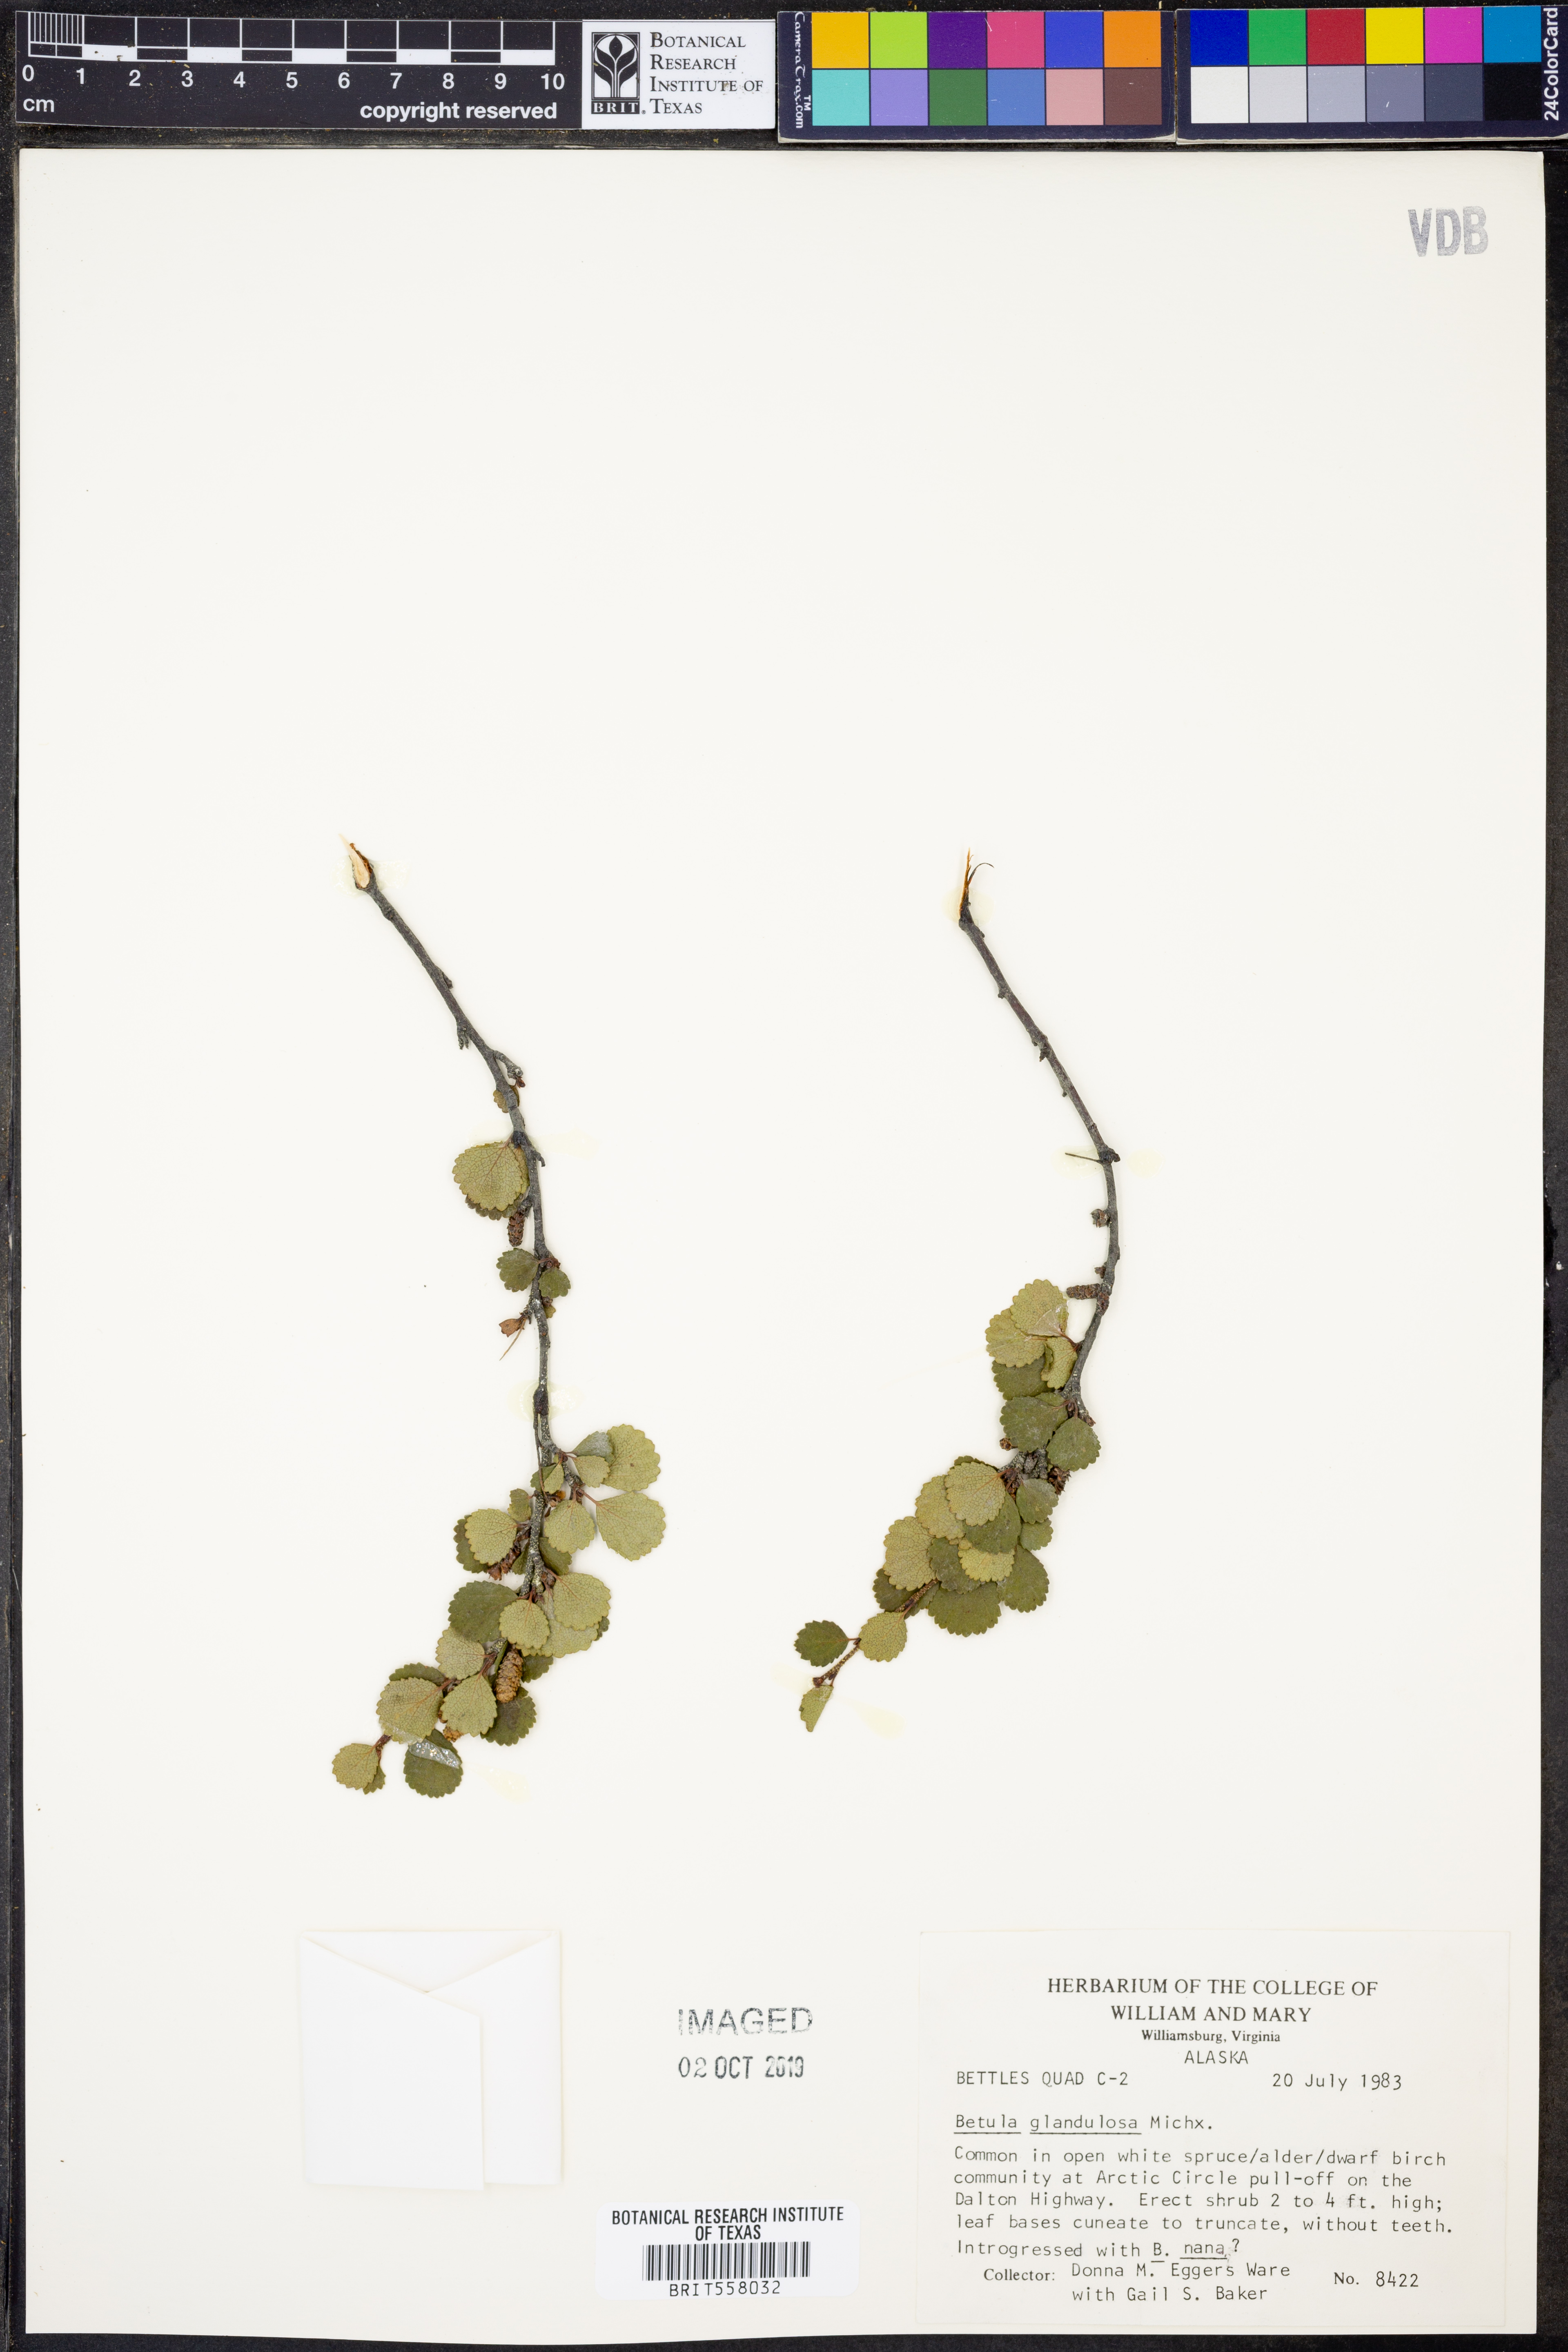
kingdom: Plantae
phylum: Tracheophyta
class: Magnoliopsida
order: Fagales
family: Betulaceae
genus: Betula
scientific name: Betula glandulosa
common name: Dwarf birch
